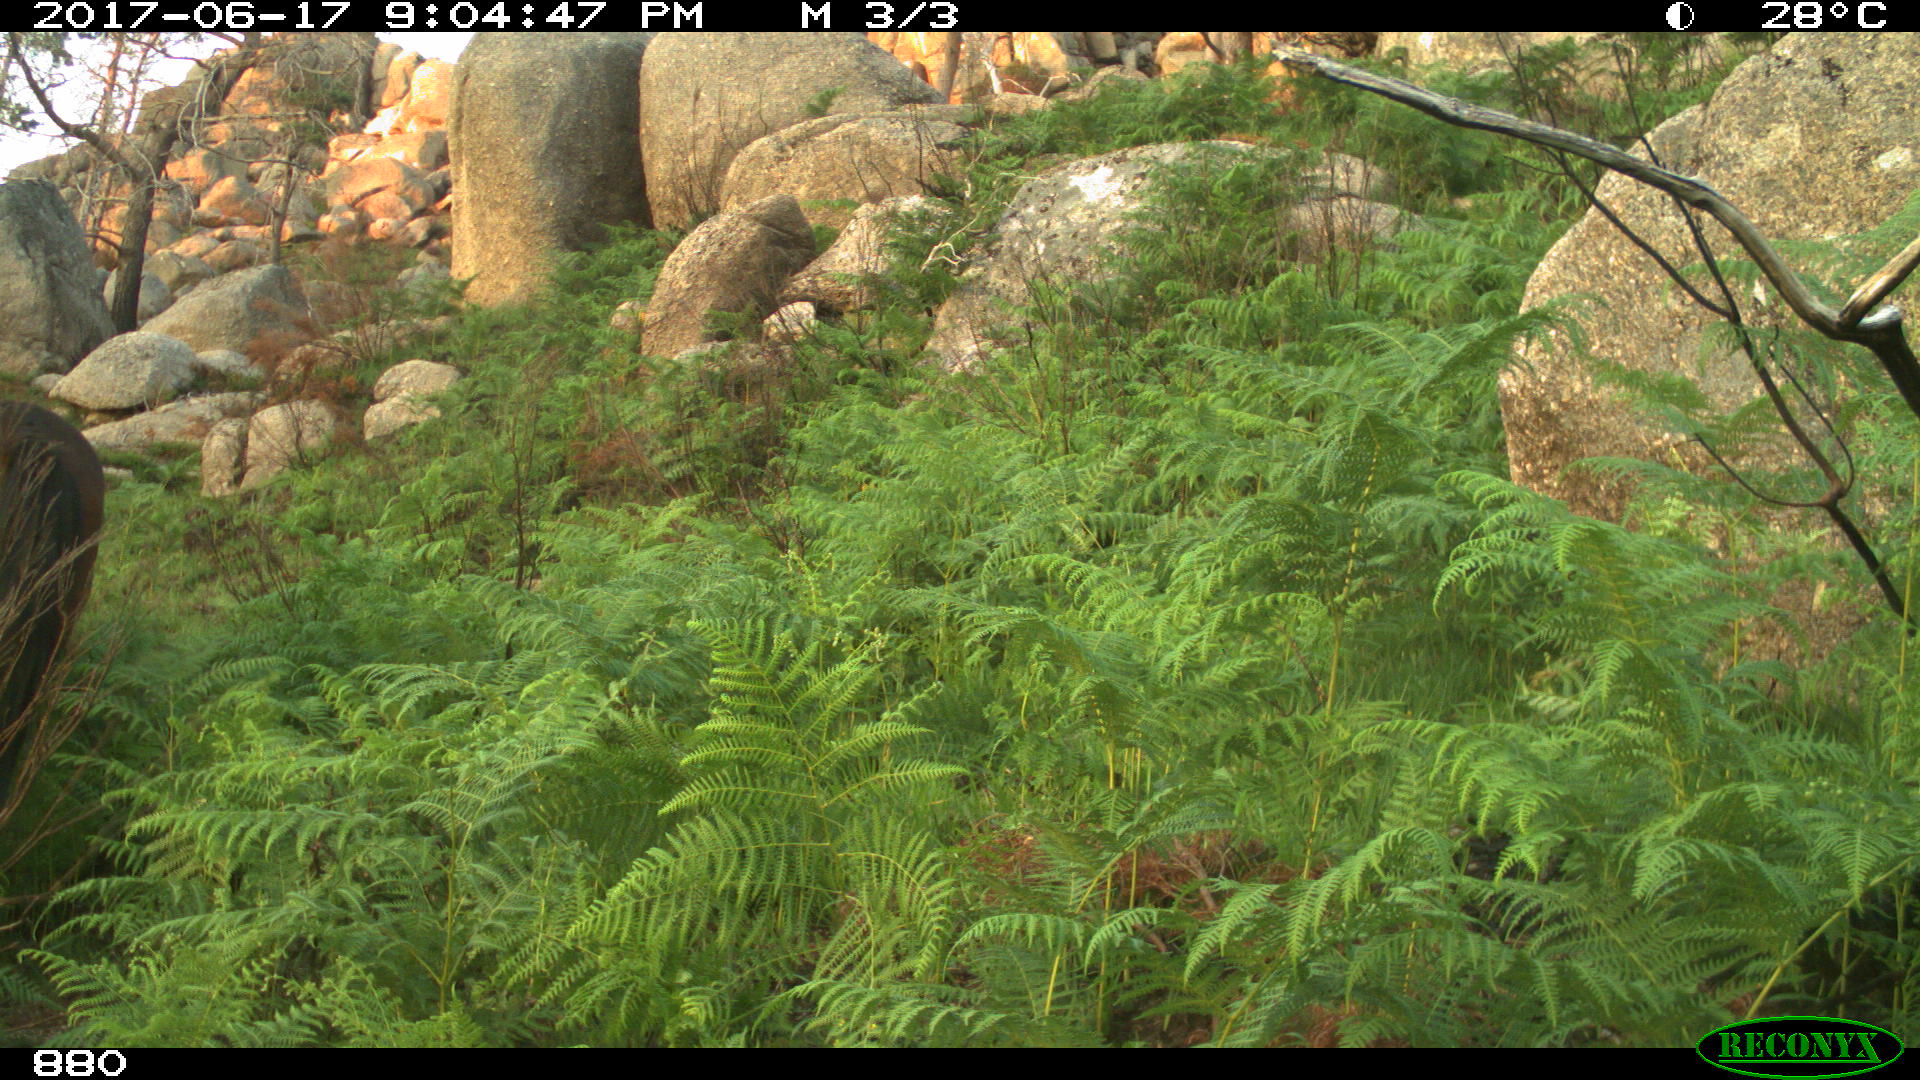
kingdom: Animalia
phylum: Chordata
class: Mammalia
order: Perissodactyla
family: Equidae
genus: Equus
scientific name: Equus caballus
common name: Horse
